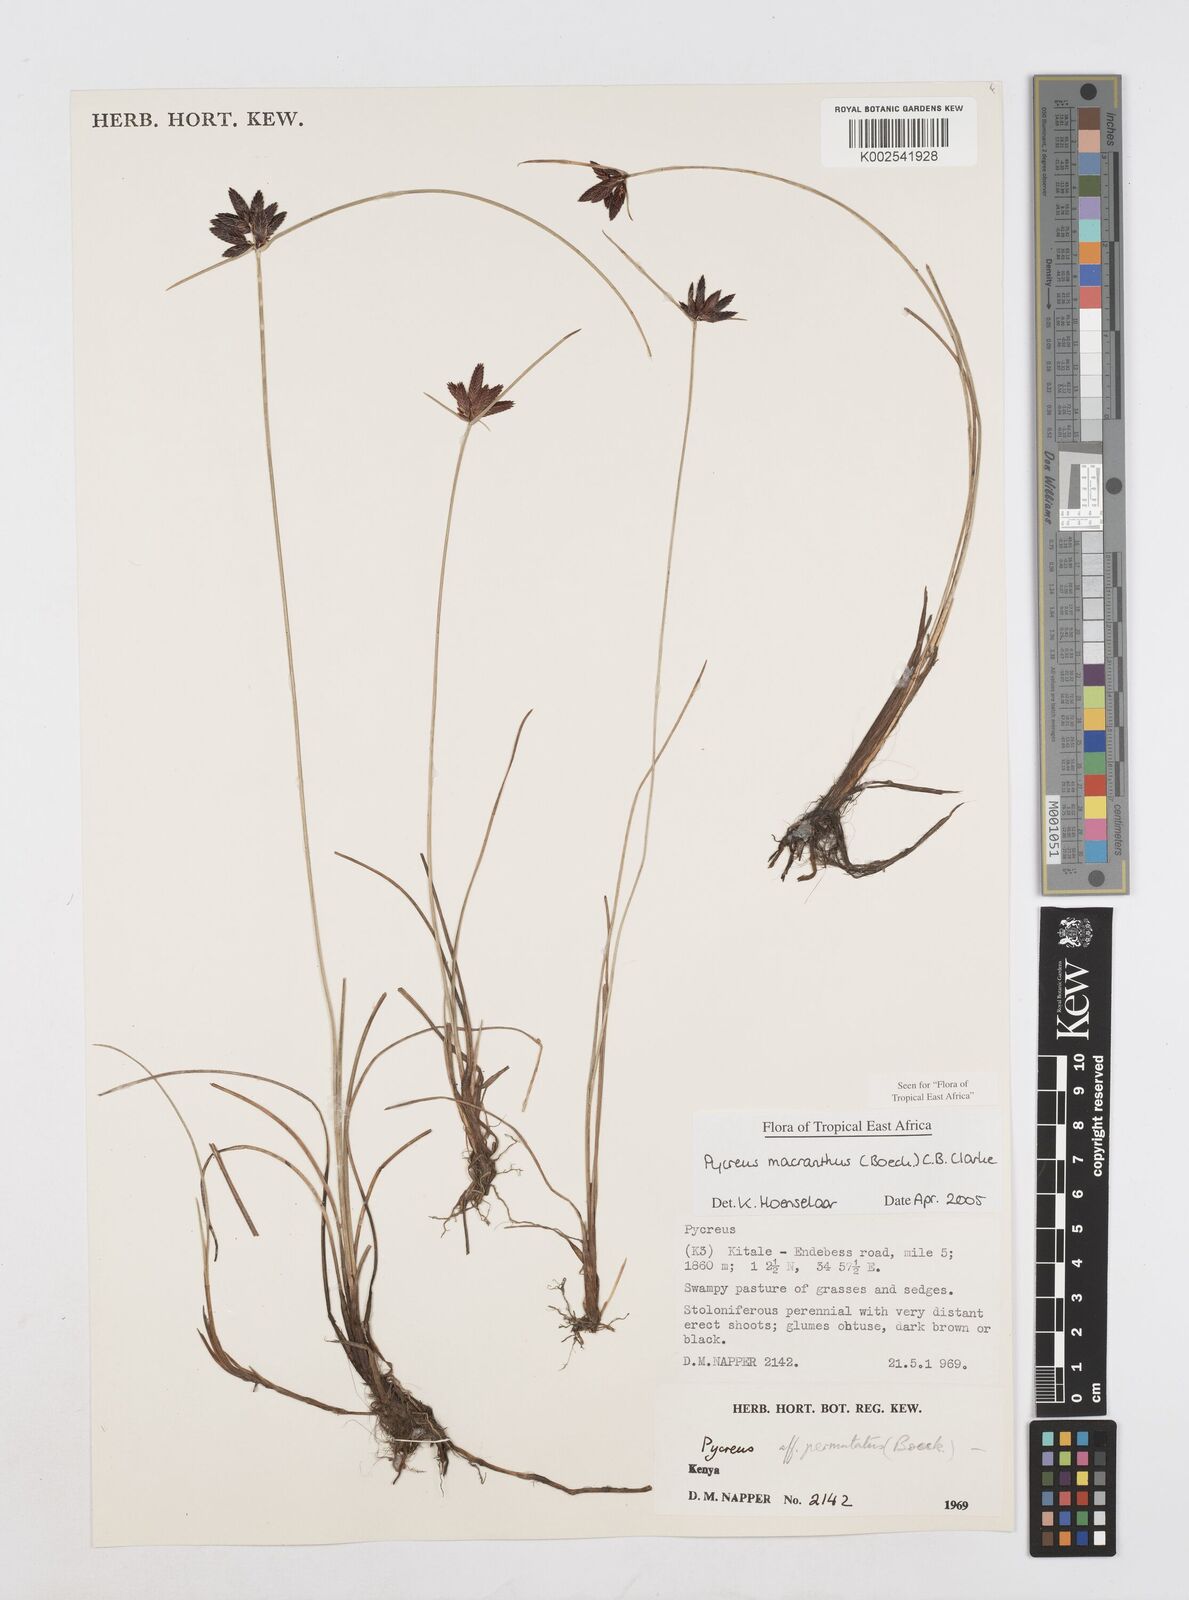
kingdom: Plantae
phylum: Tracheophyta
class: Liliopsida
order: Poales
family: Cyperaceae
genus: Cyperus
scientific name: Cyperus nigricans
